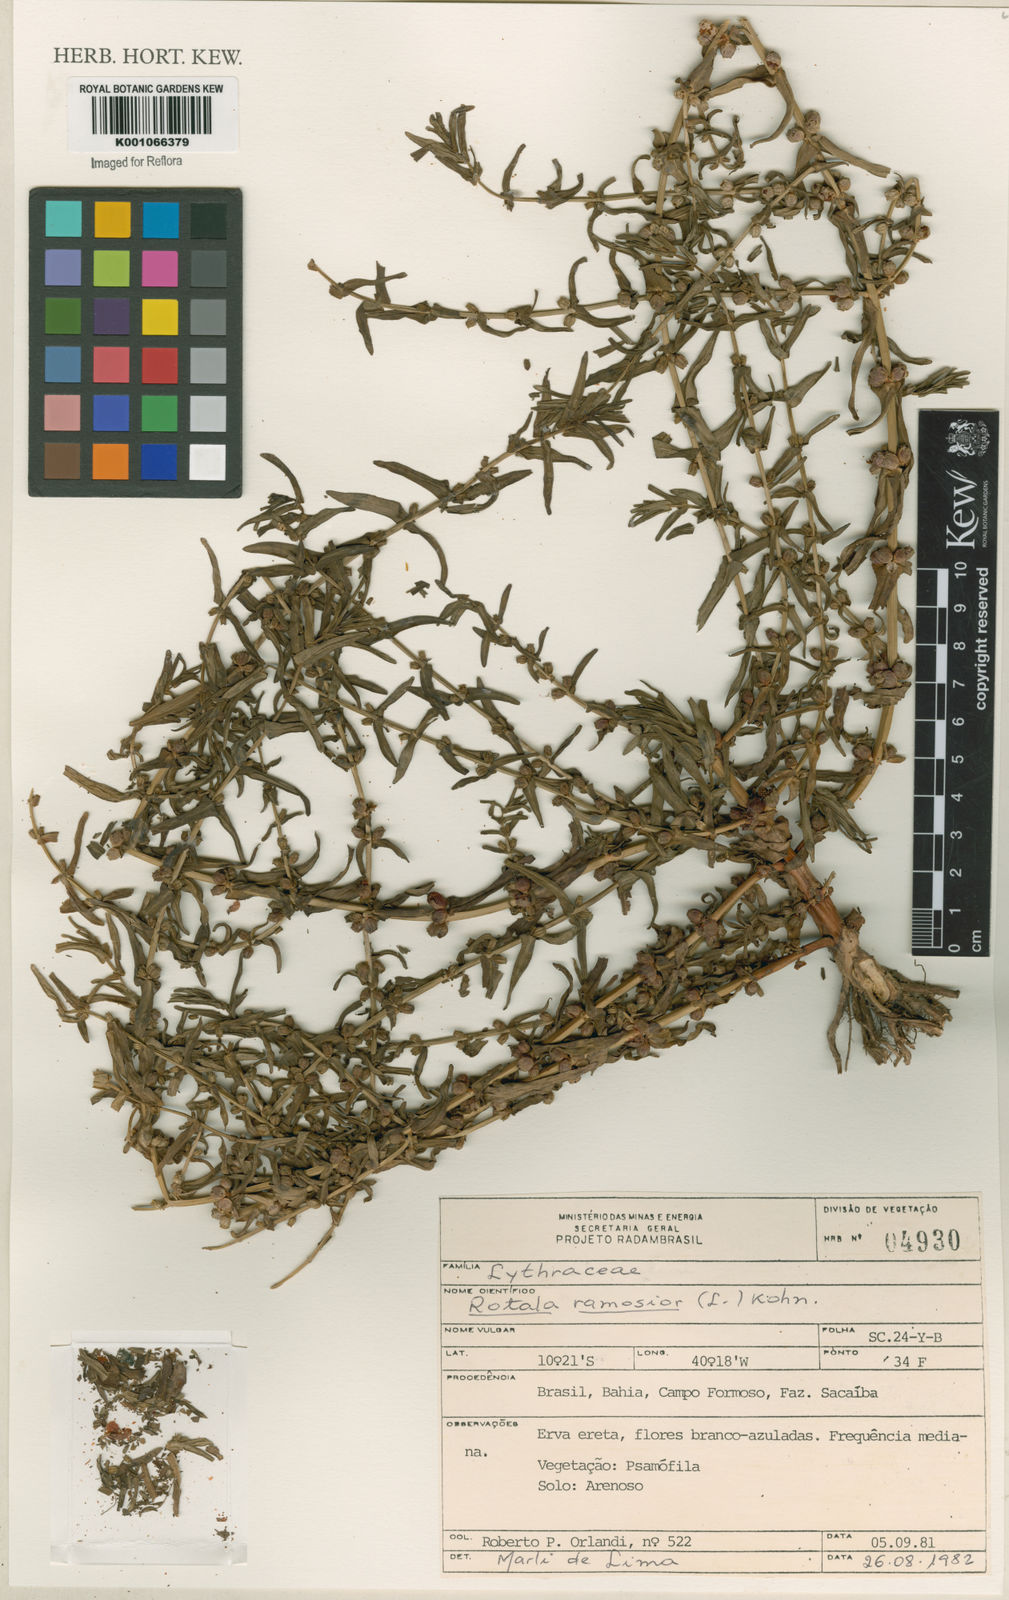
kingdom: Plantae
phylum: Tracheophyta
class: Magnoliopsida
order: Myrtales
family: Lythraceae
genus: Rotala
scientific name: Rotala ramosior
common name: Lowland rotala
